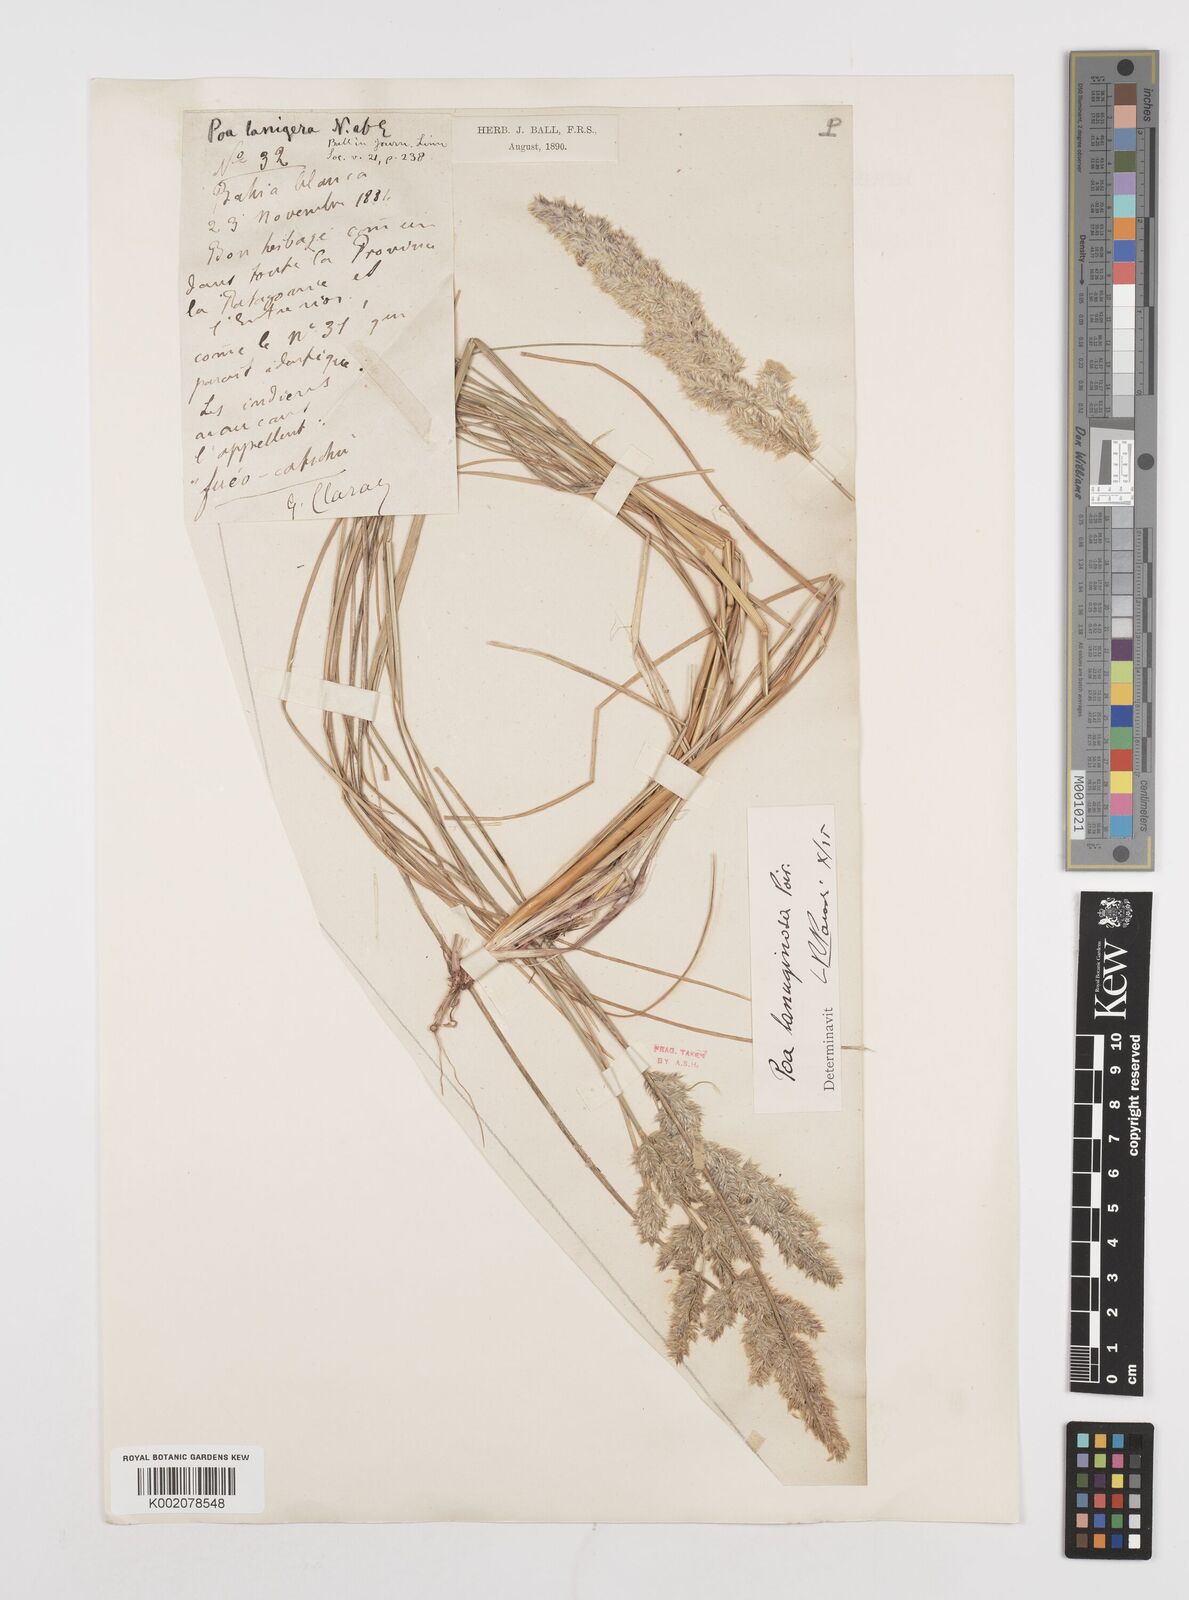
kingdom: Plantae
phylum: Tracheophyta
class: Liliopsida
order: Poales
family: Poaceae
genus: Poa
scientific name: Poa lanuginosa
